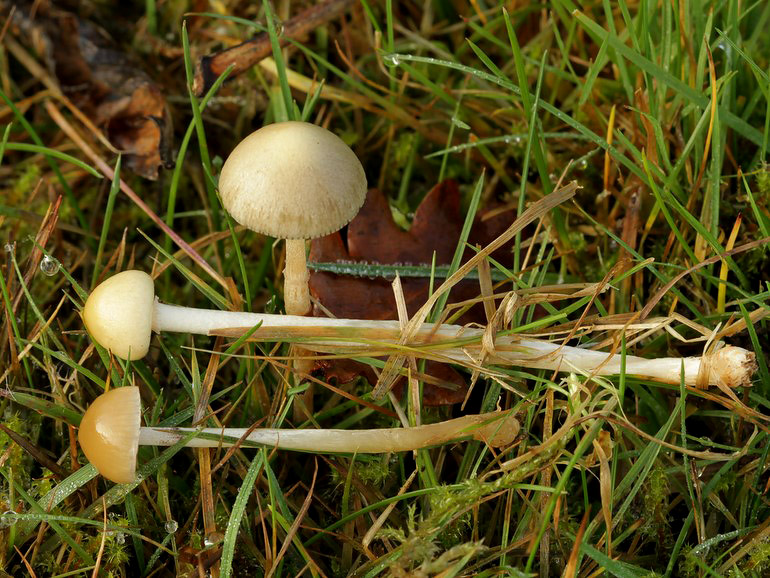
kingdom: Fungi
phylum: Basidiomycota
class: Agaricomycetes
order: Agaricales
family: Strophariaceae
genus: Protostropharia
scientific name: Protostropharia semiglobata
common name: halvkugleformet bredblad
